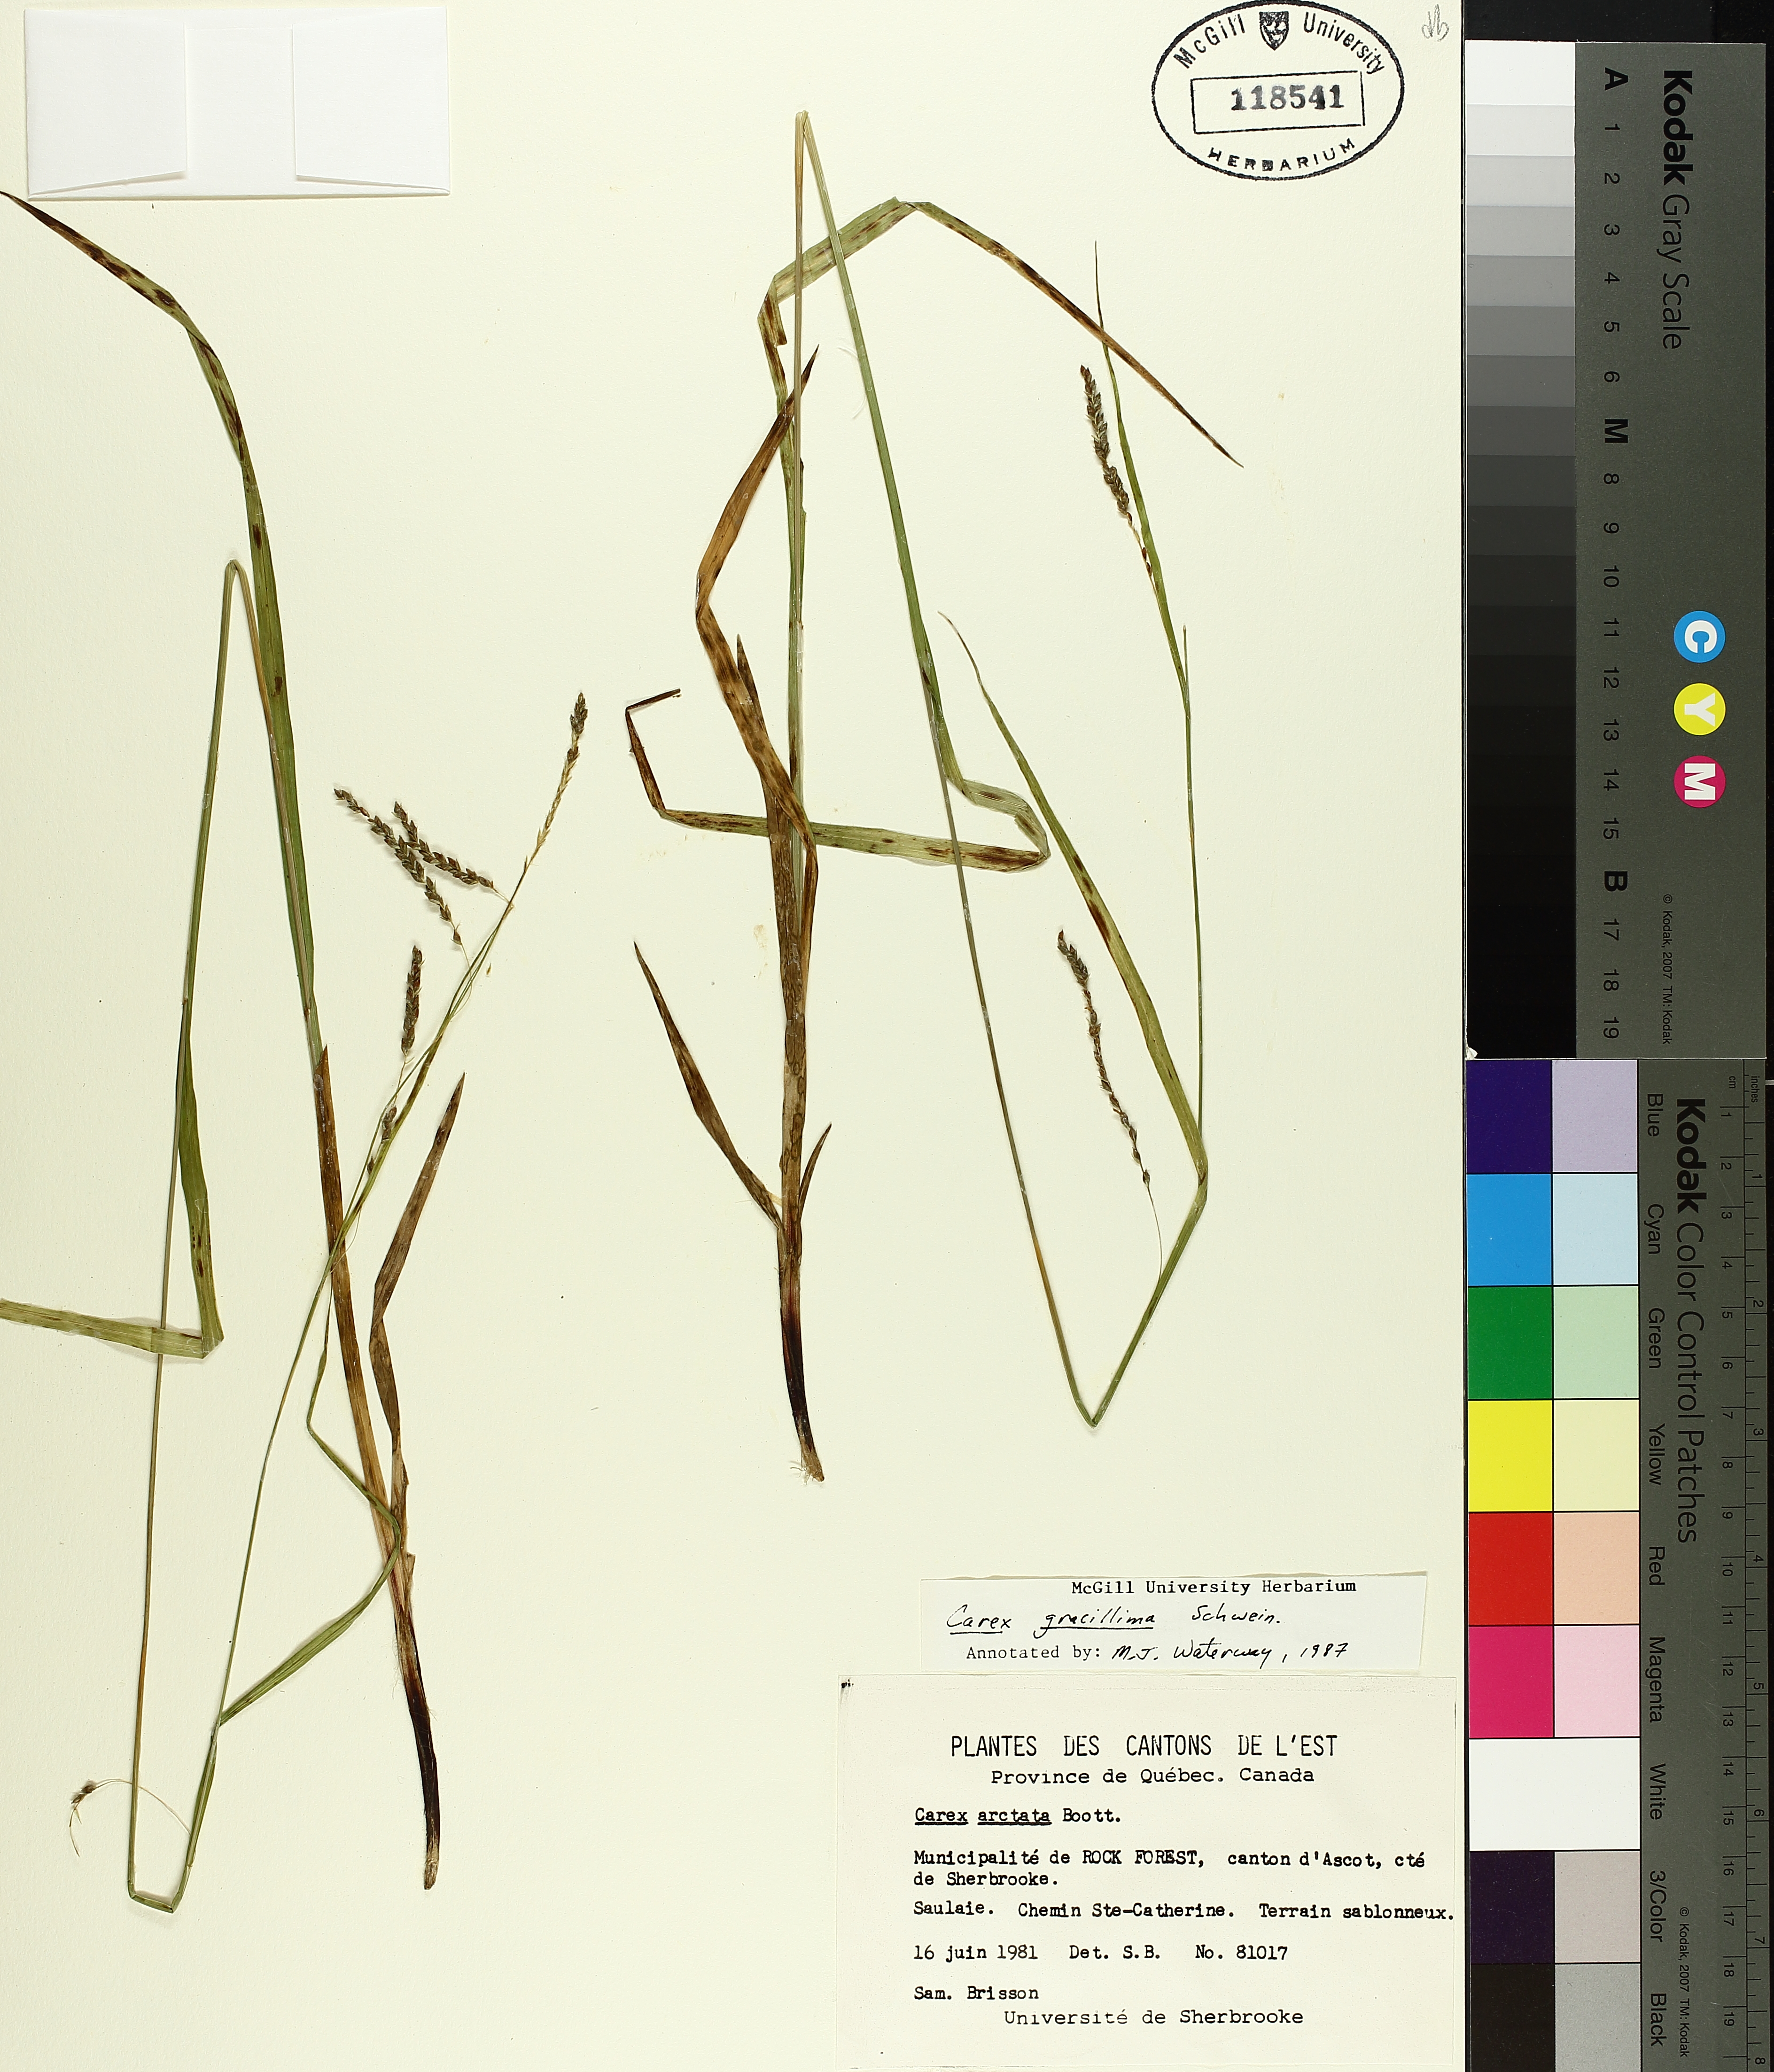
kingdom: Plantae
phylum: Tracheophyta
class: Liliopsida
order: Poales
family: Cyperaceae
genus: Carex
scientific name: Carex gracillima
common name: Graceful sedge
